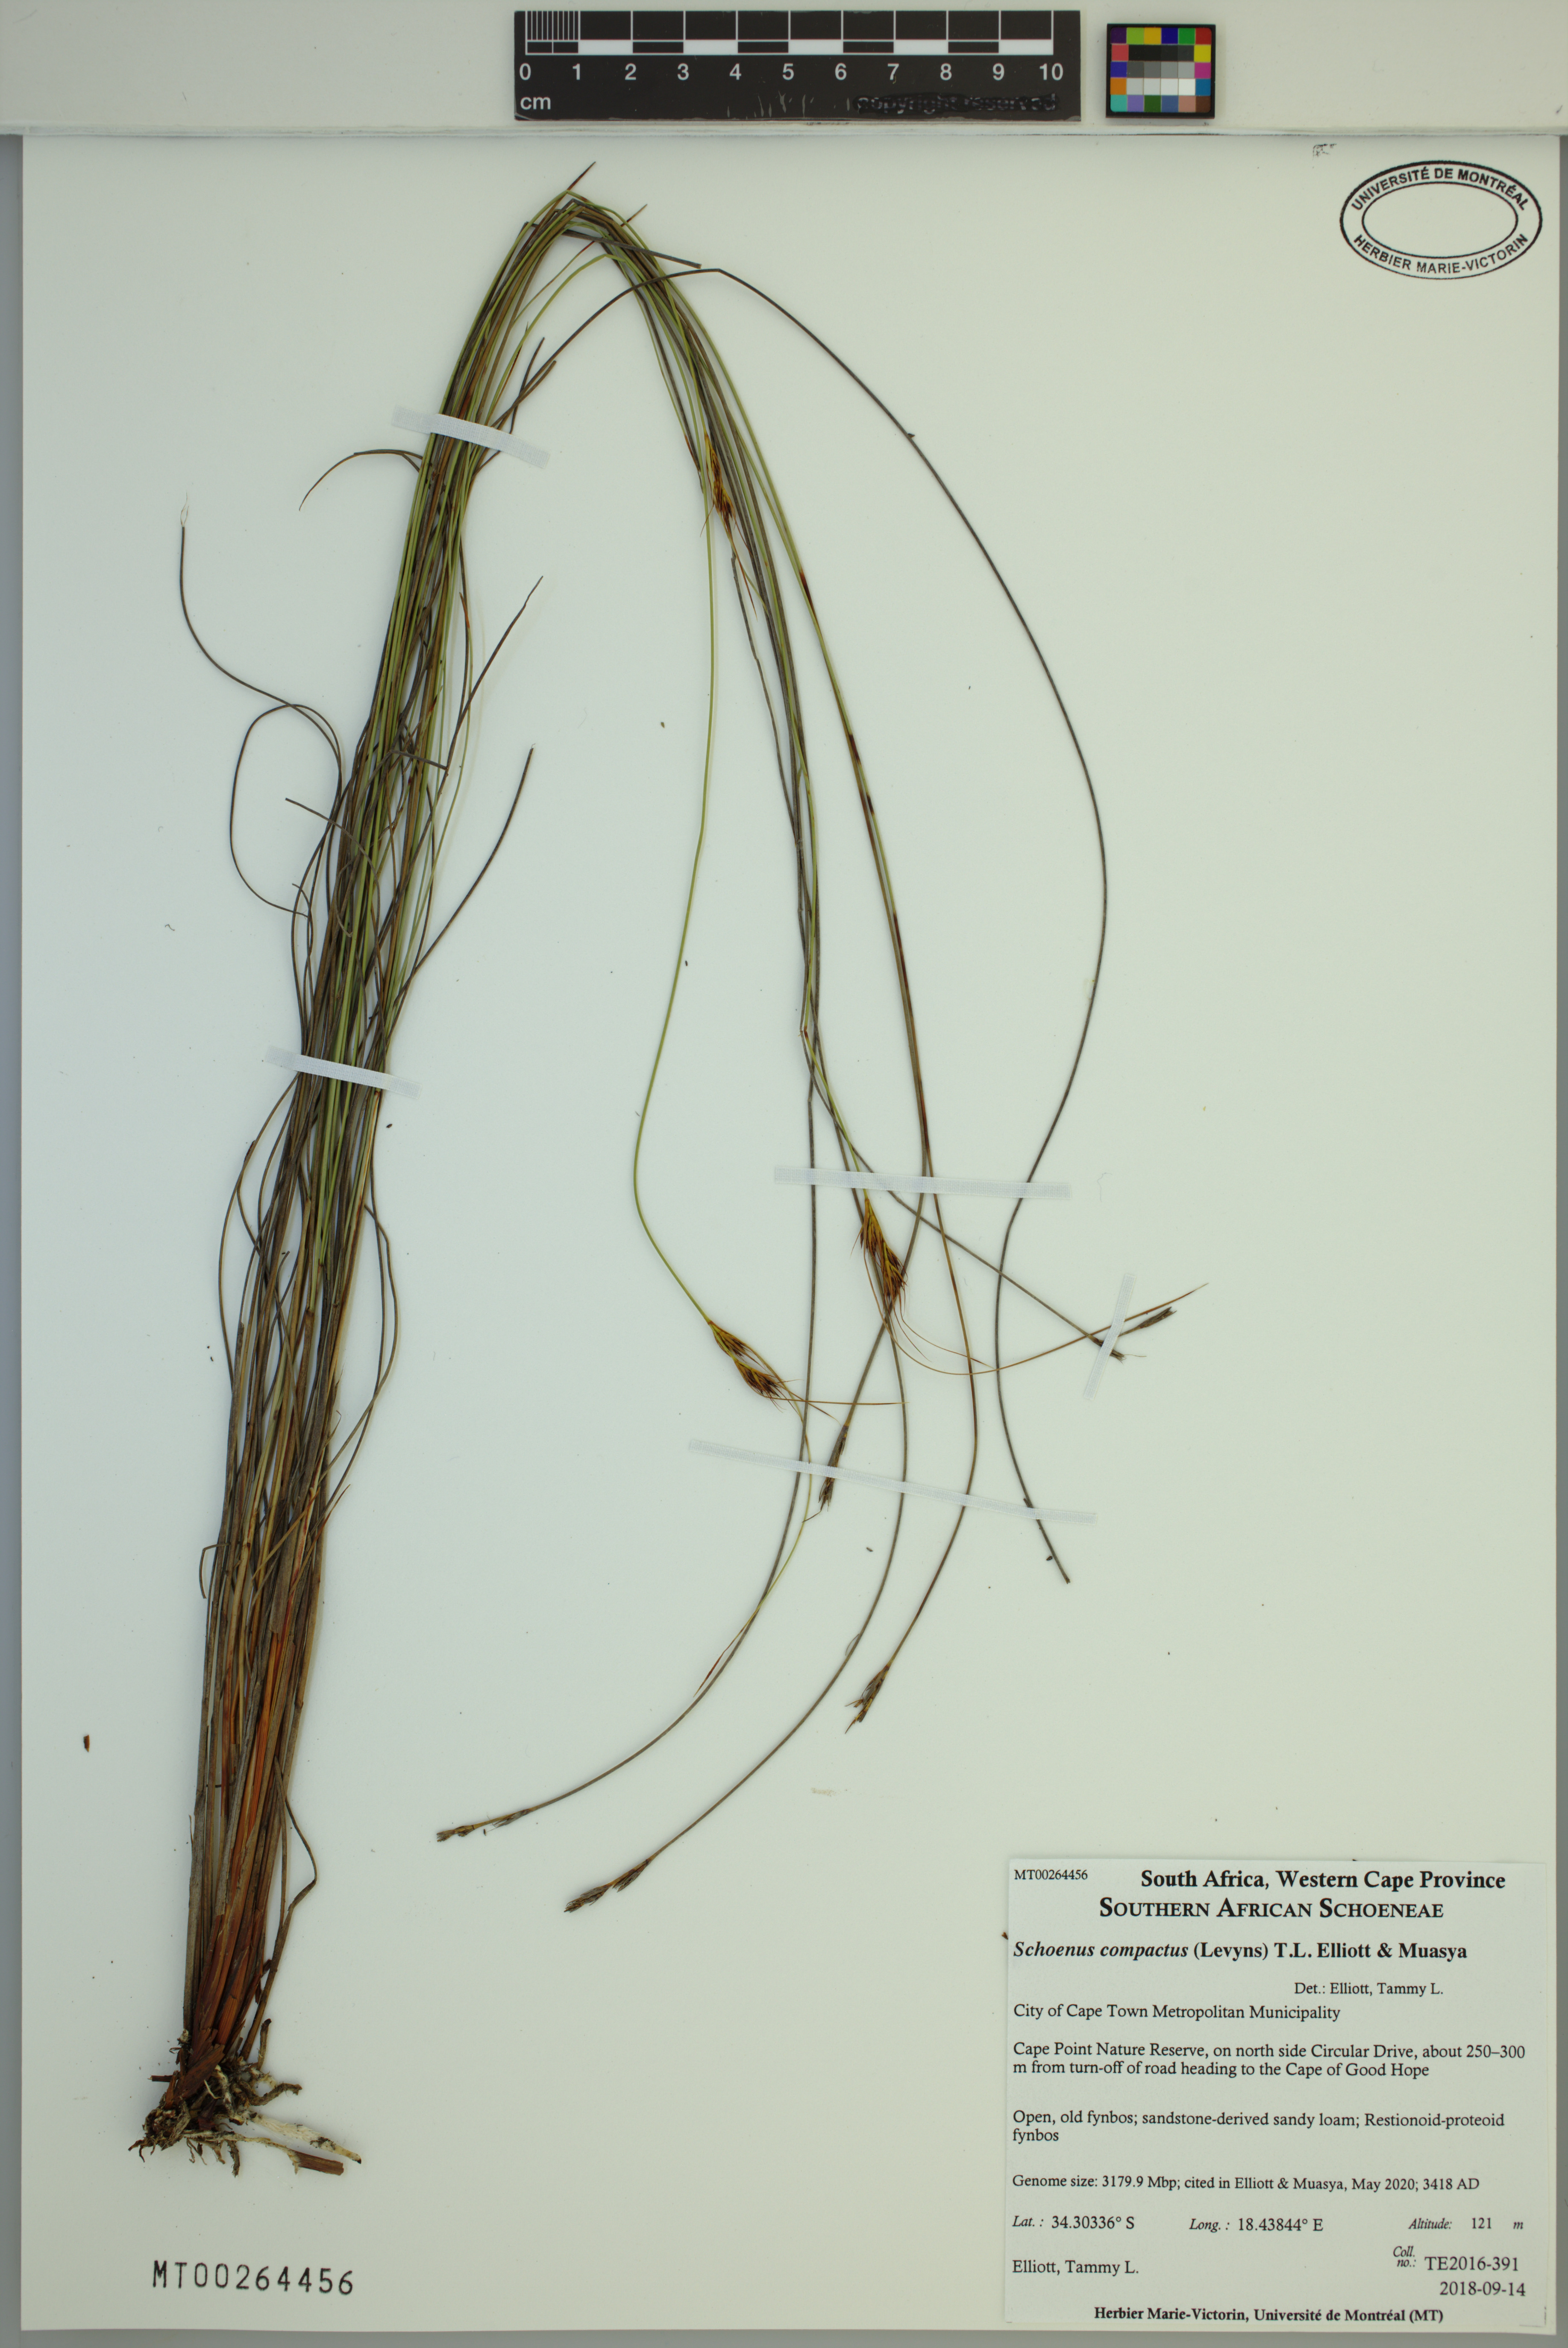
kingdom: Plantae
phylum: Tracheophyta
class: Liliopsida
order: Poales
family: Cyperaceae
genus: Schoenus
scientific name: Schoenus compactus
